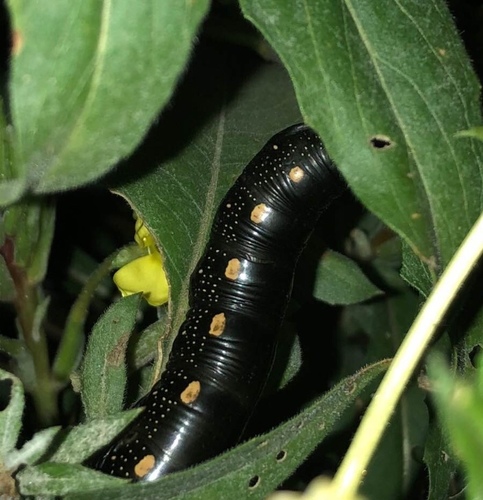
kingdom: Animalia
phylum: Arthropoda
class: Insecta
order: Lepidoptera
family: Sphingidae
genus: Hyles
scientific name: Hyles gallii
